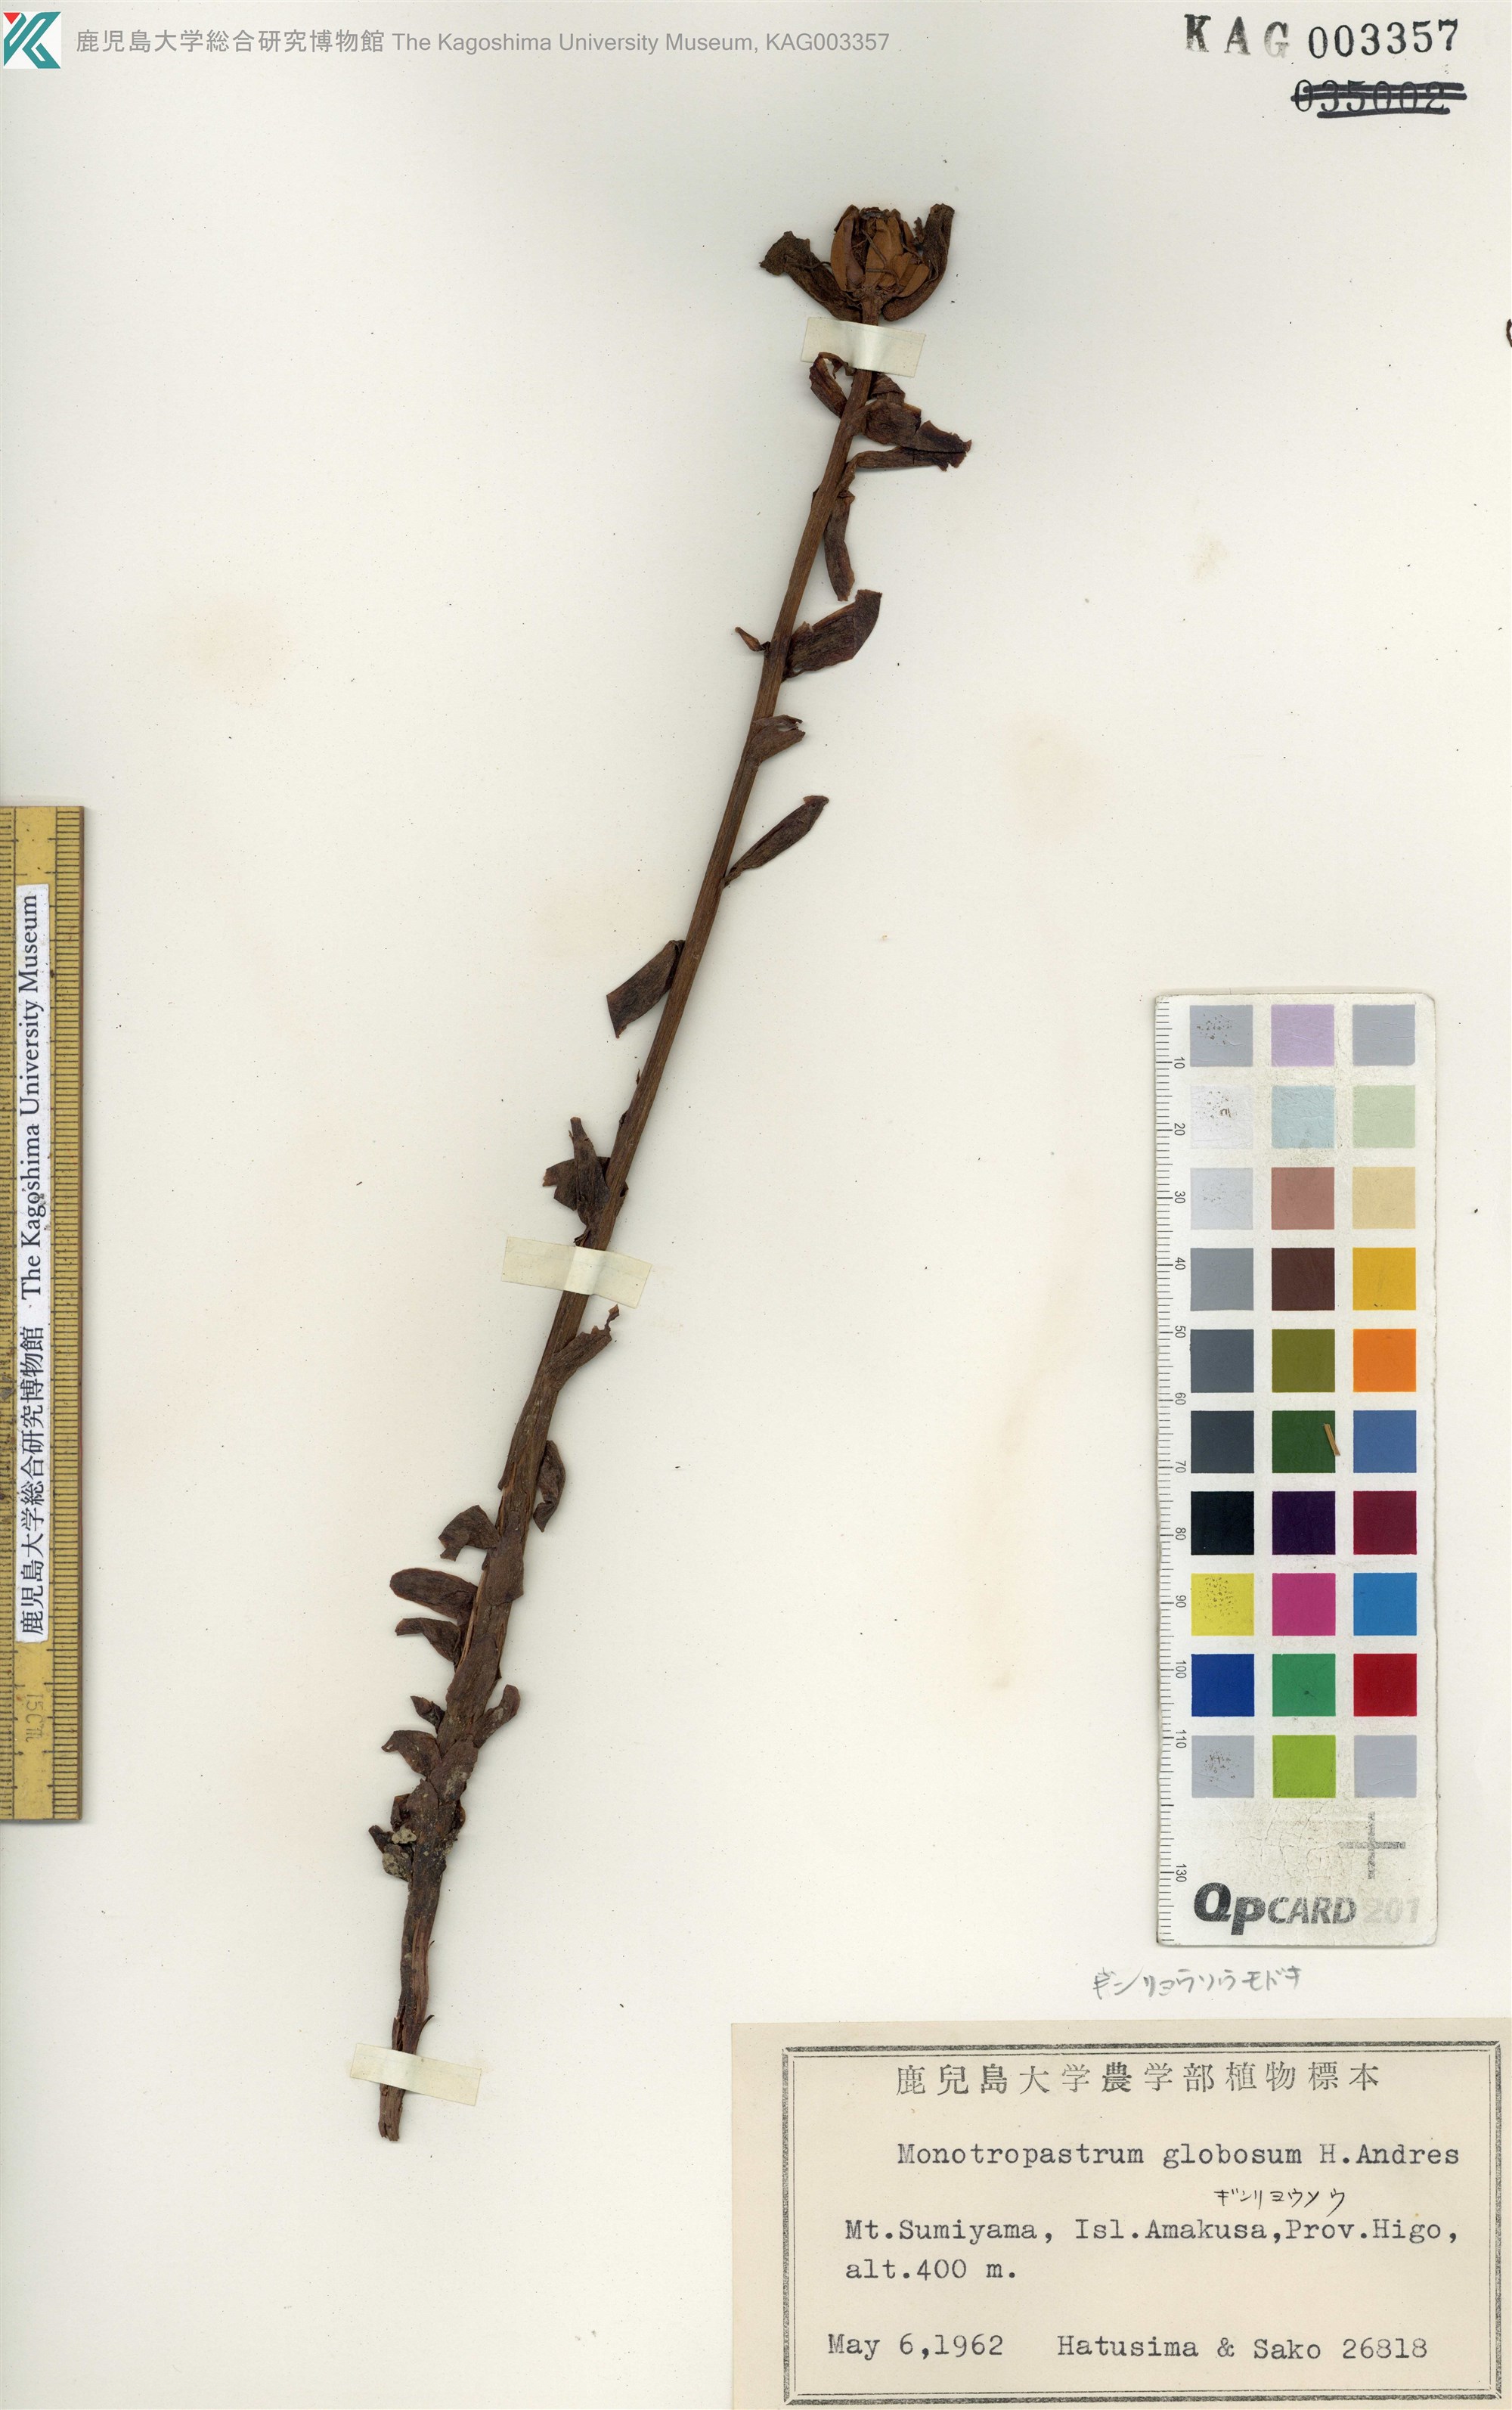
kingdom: Plantae
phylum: Tracheophyta
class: Magnoliopsida
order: Ericales
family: Ericaceae
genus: Monotropa
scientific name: Monotropa uniflora
